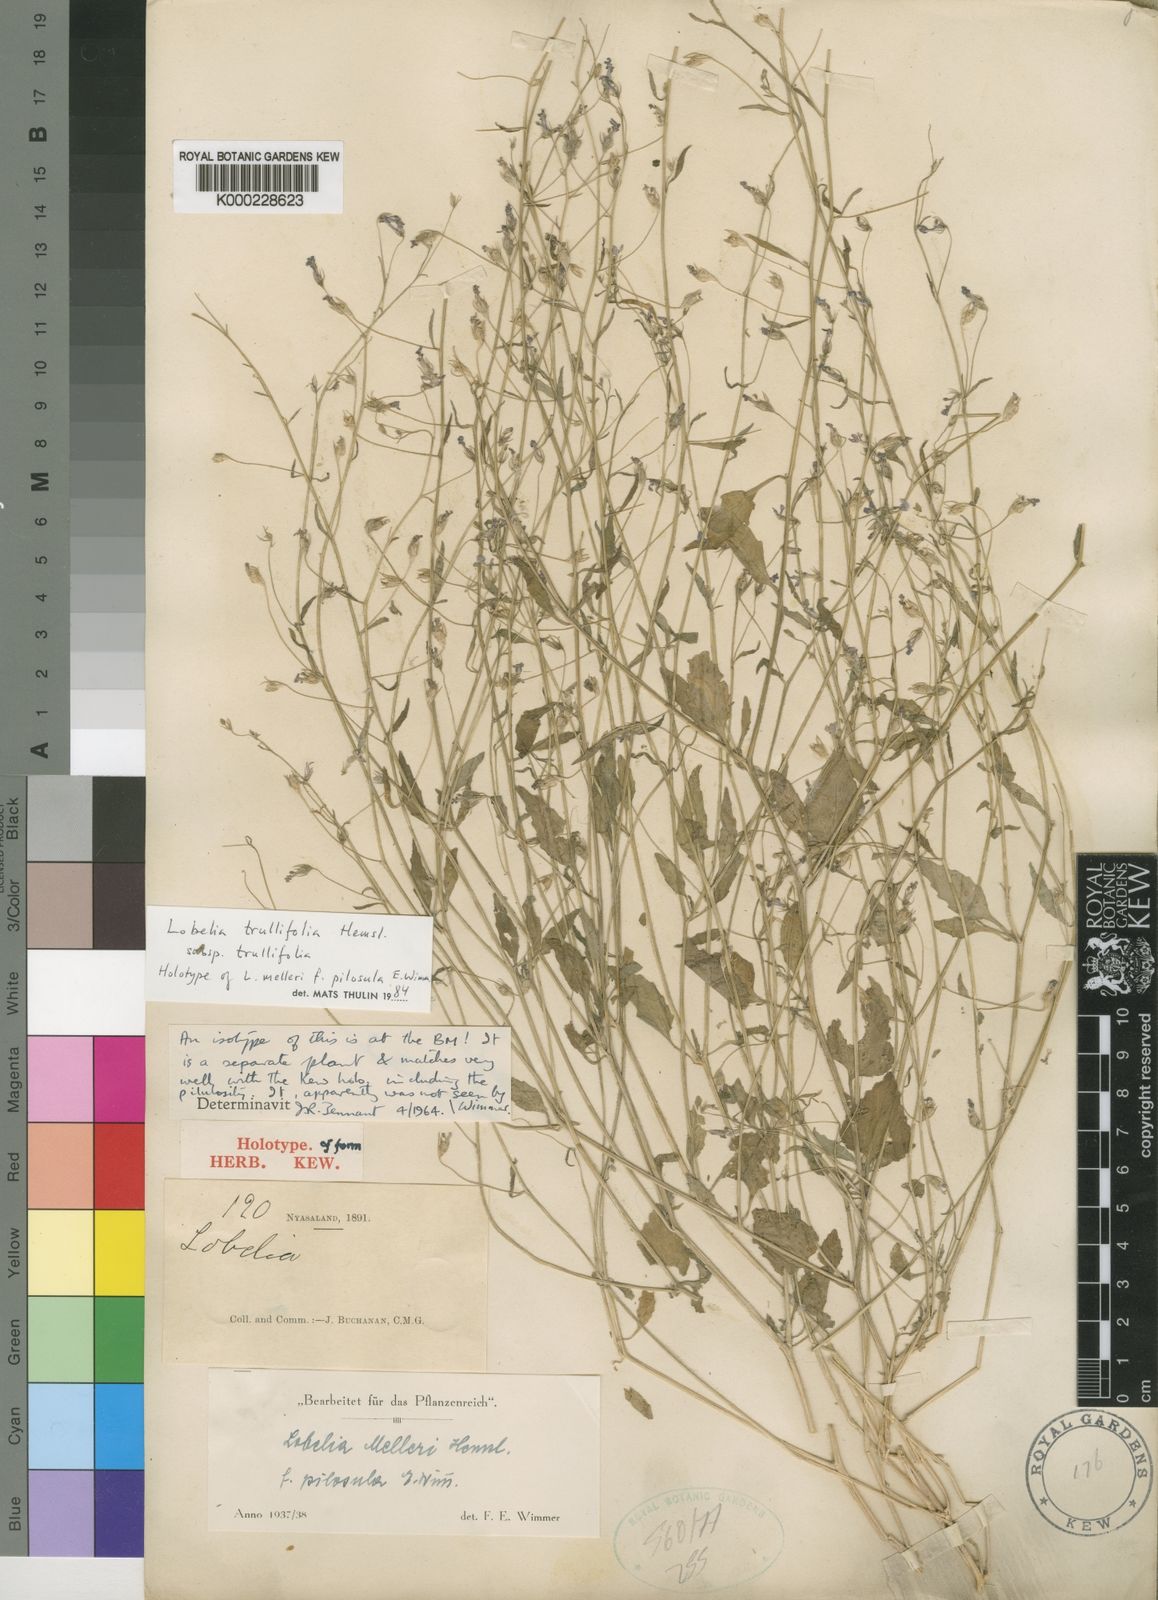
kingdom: Plantae
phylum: Tracheophyta
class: Magnoliopsida
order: Asterales
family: Campanulaceae
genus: Lobelia
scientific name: Lobelia trullifolia
